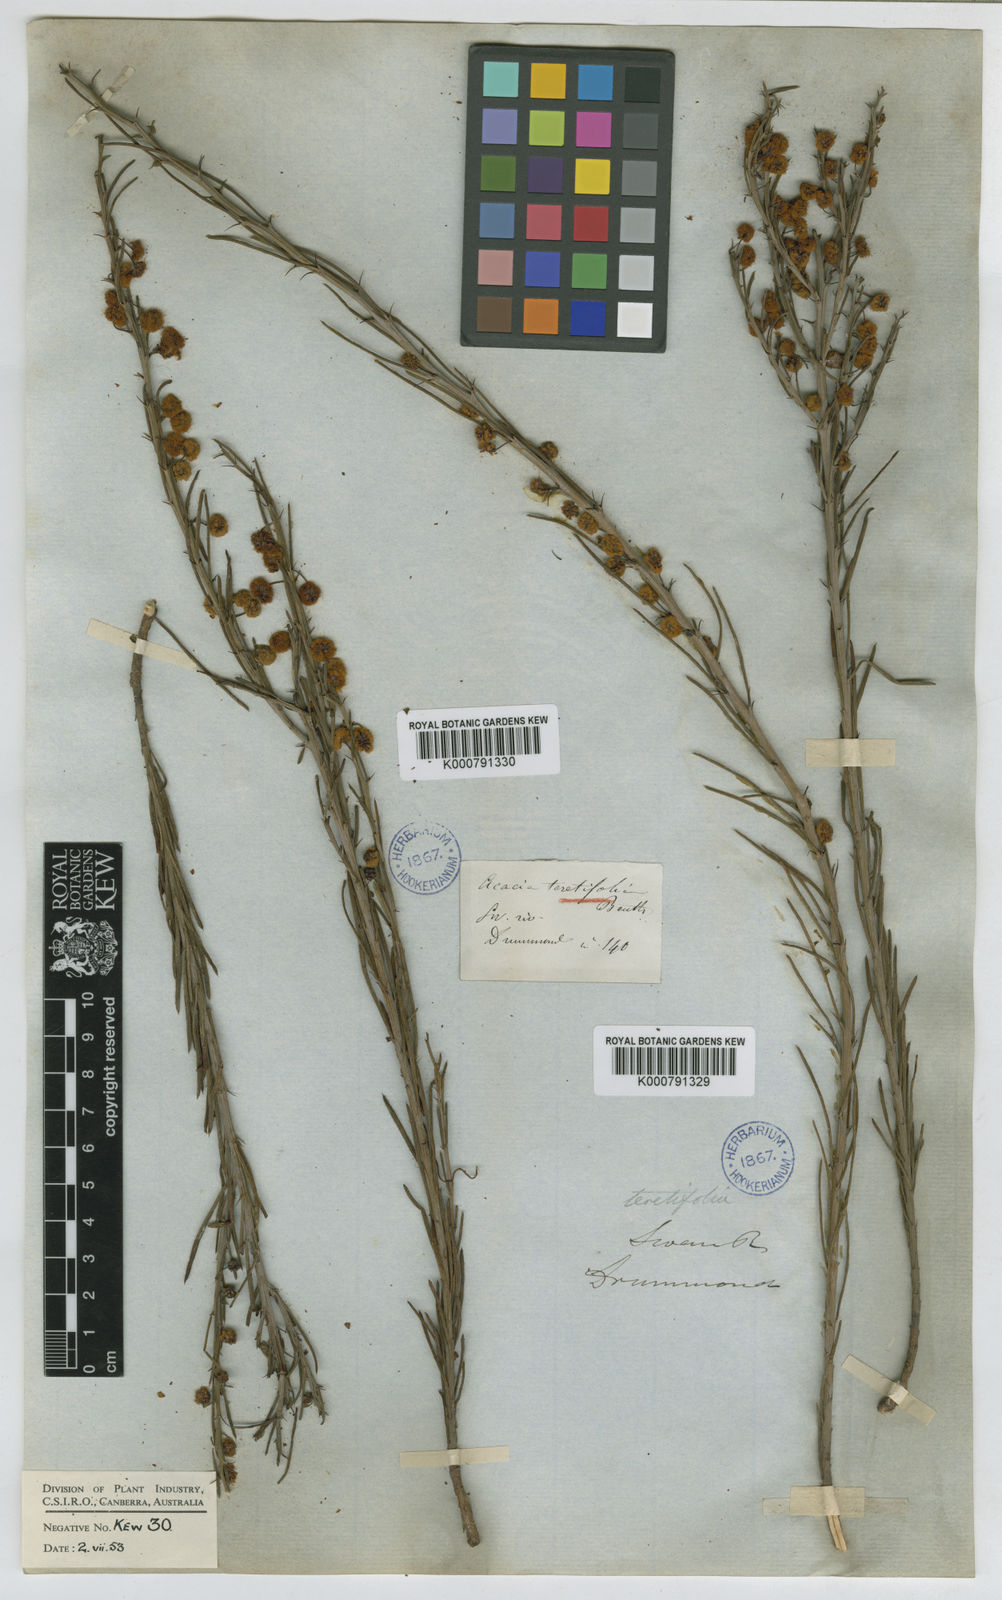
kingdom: Plantae
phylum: Tracheophyta
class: Magnoliopsida
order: Fabales
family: Fabaceae
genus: Acacia
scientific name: Acacia teretifolia
